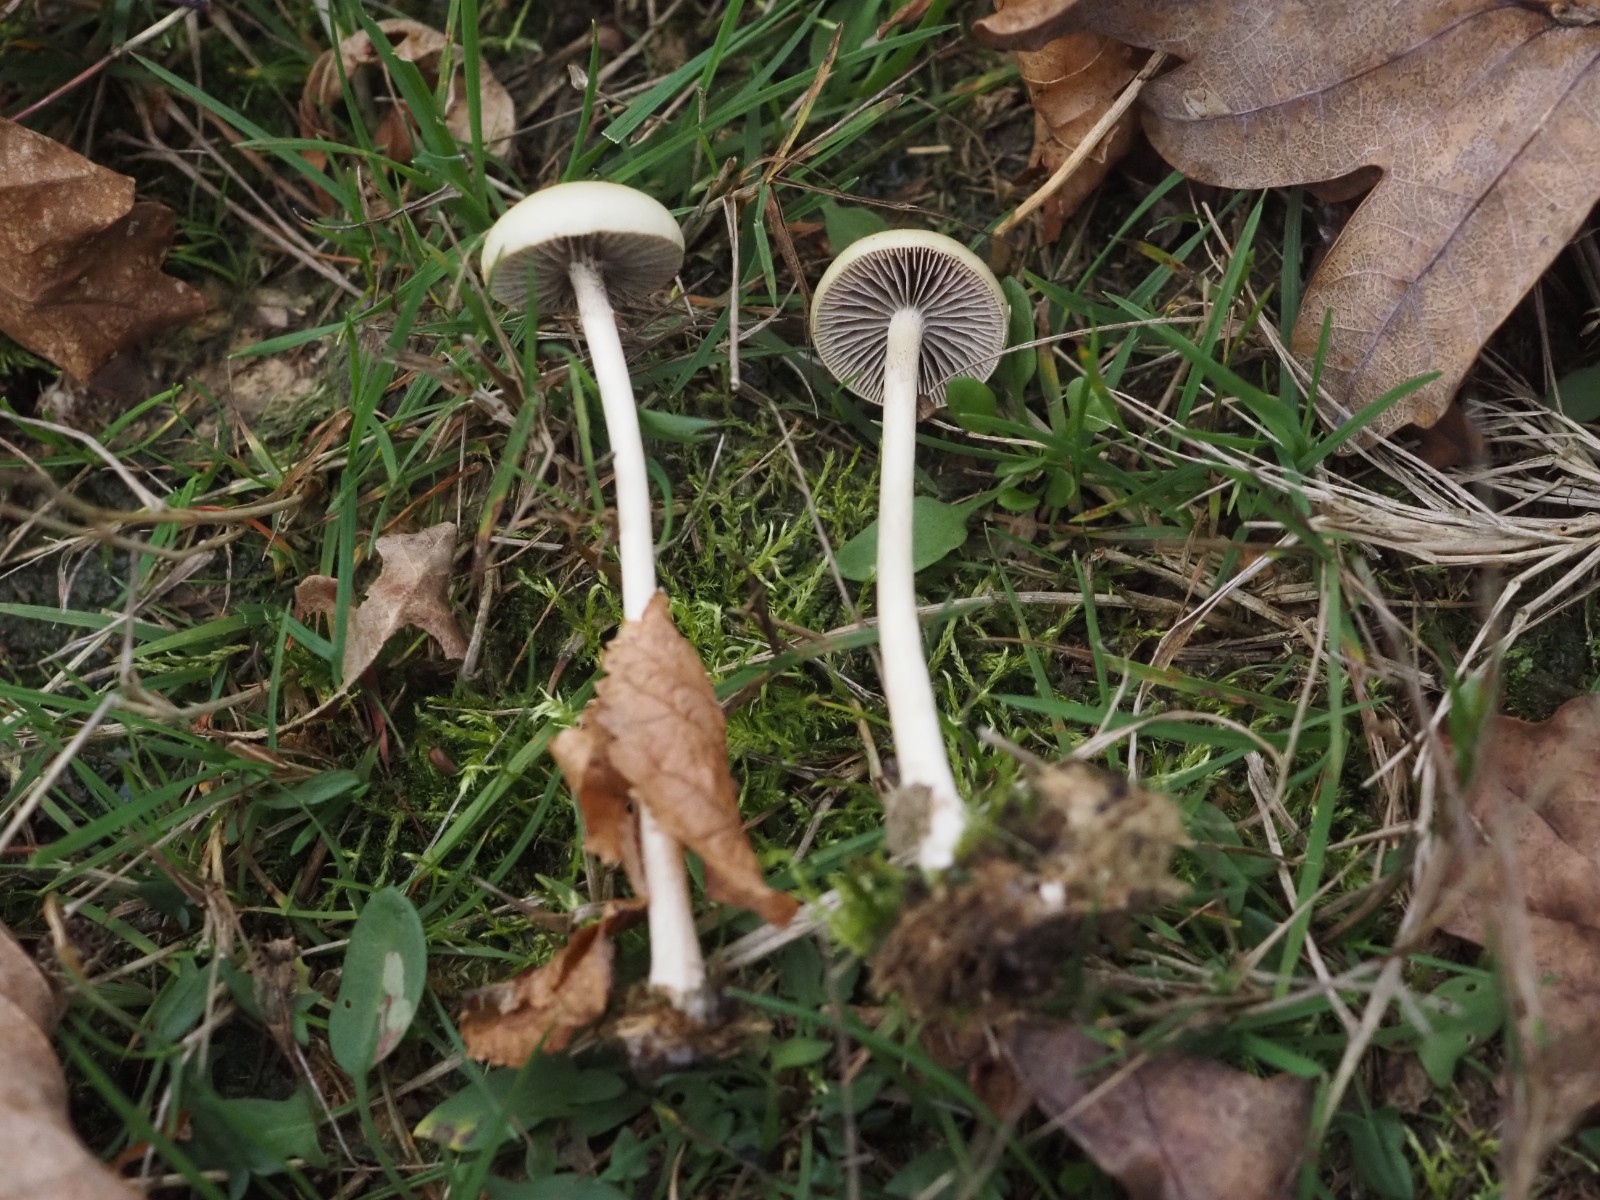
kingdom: Fungi
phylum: Basidiomycota
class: Agaricomycetes
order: Agaricales
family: Strophariaceae
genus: Protostropharia
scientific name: Protostropharia semiglobata
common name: halvkugleformet bredblad
